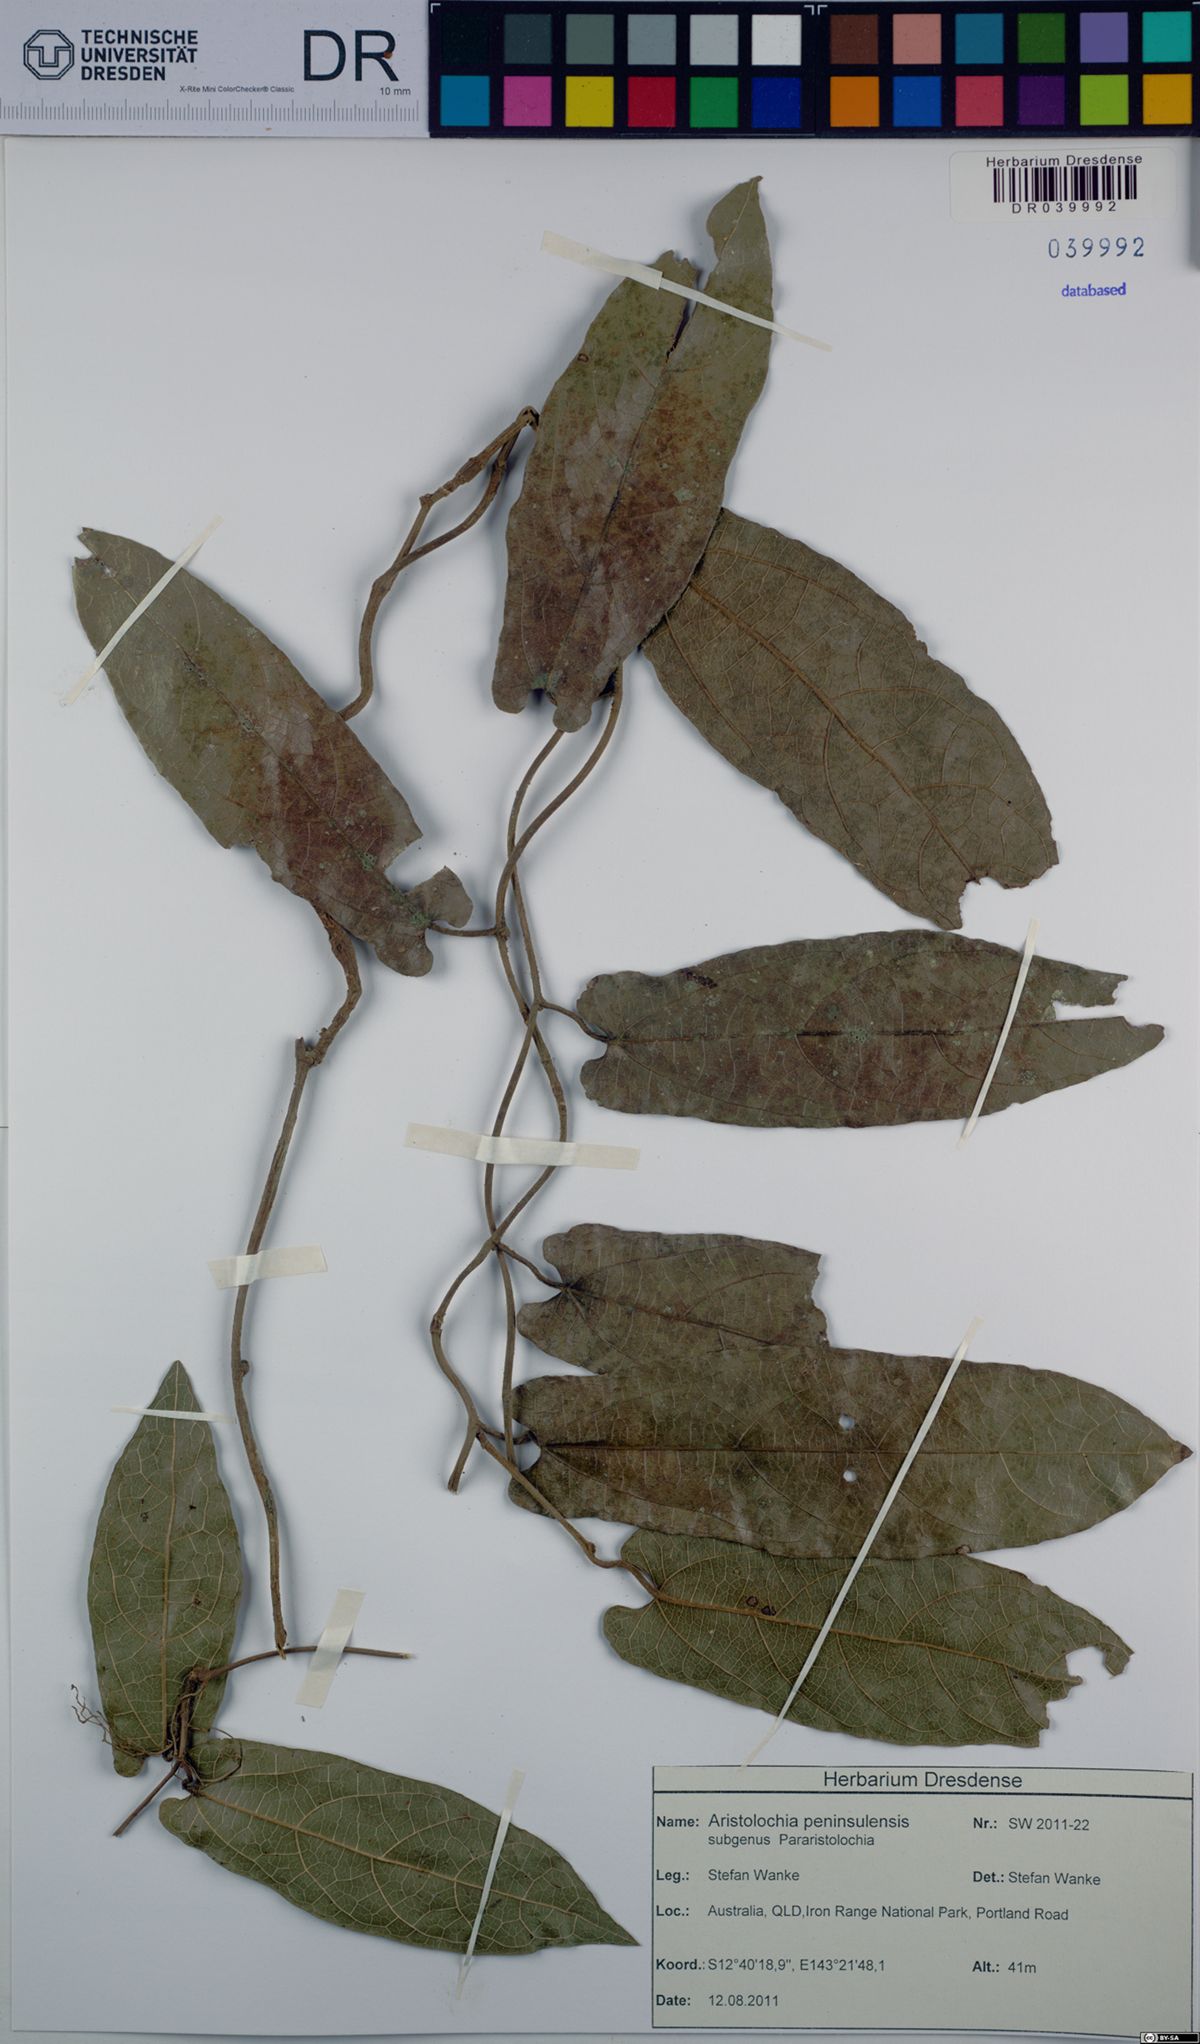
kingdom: Plantae
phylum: Tracheophyta
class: Magnoliopsida
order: Piperales
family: Aristolochiaceae
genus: Aristolochia
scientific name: Aristolochia peninsulensis
